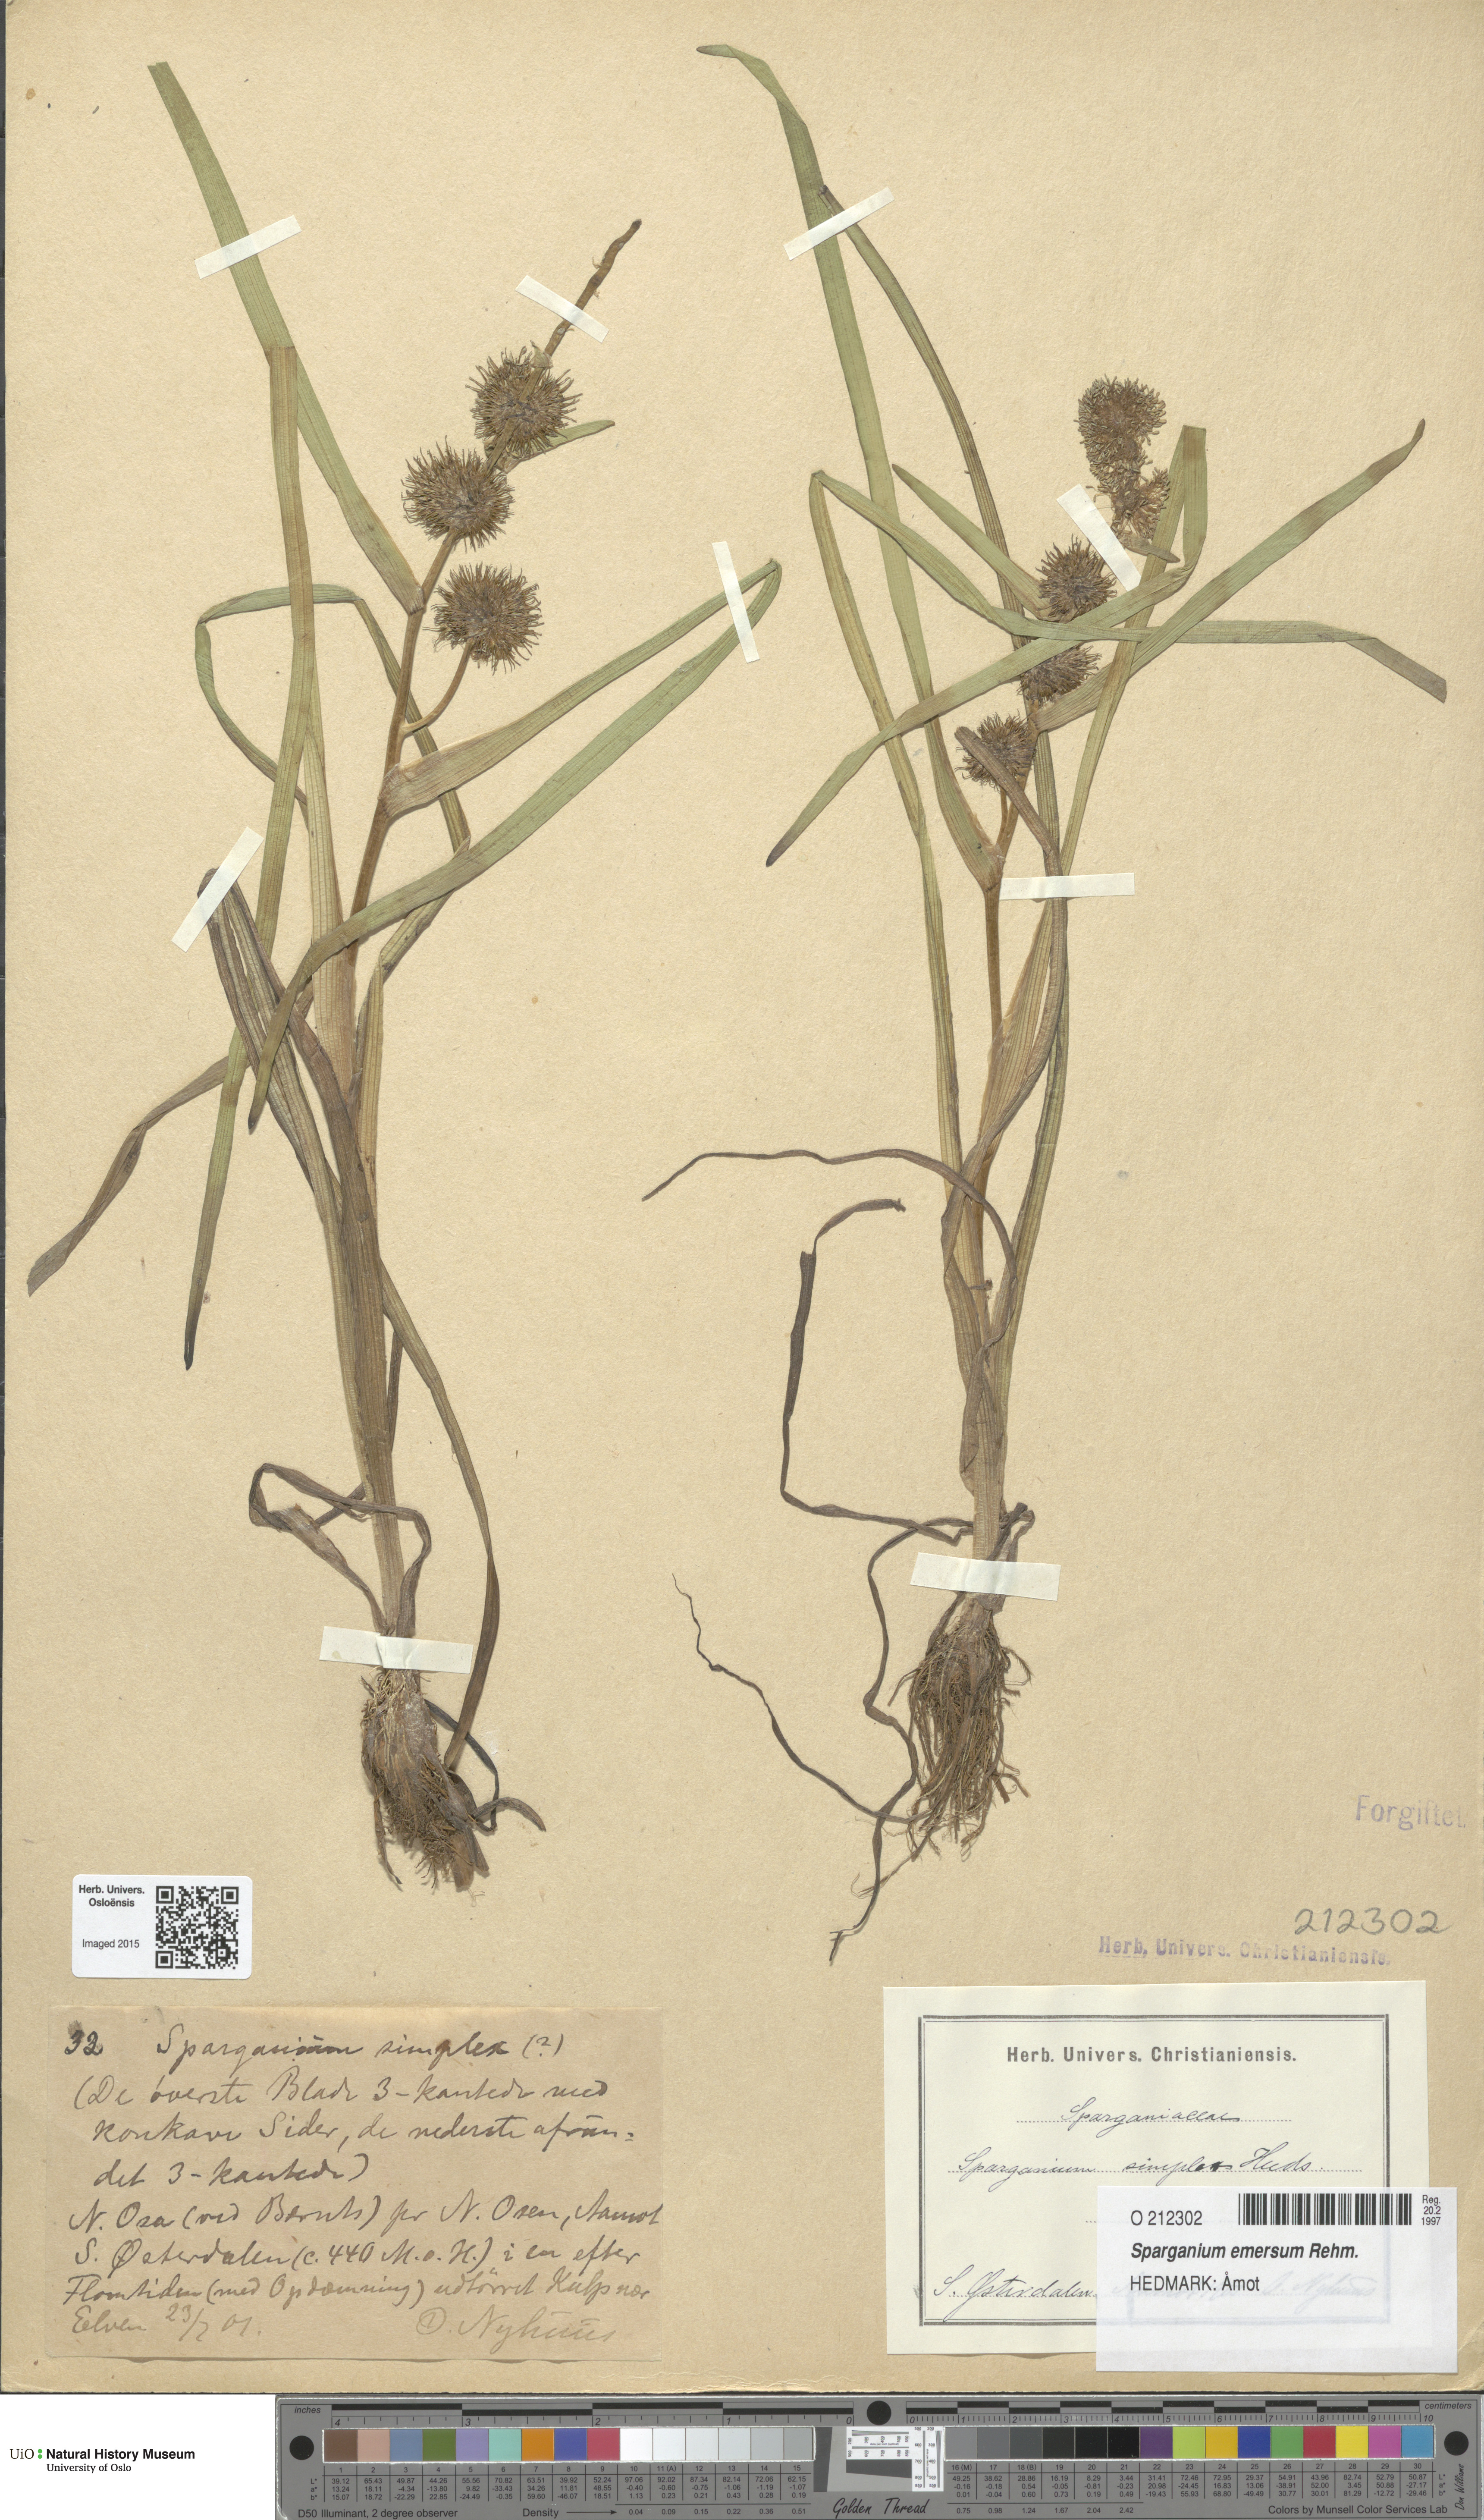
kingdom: Plantae
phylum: Tracheophyta
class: Liliopsida
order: Poales
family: Typhaceae
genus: Sparganium
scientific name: Sparganium emersum
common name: Unbranched bur-reed
